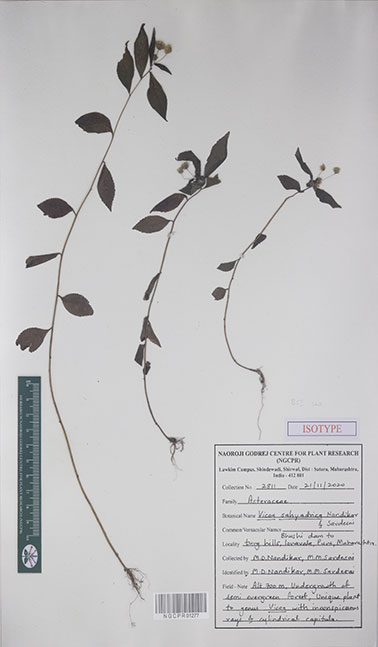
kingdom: Plantae
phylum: Tracheophyta
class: Magnoliopsida
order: Asterales
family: Asteraceae
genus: Vicoa
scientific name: Vicoa sahyadrica
